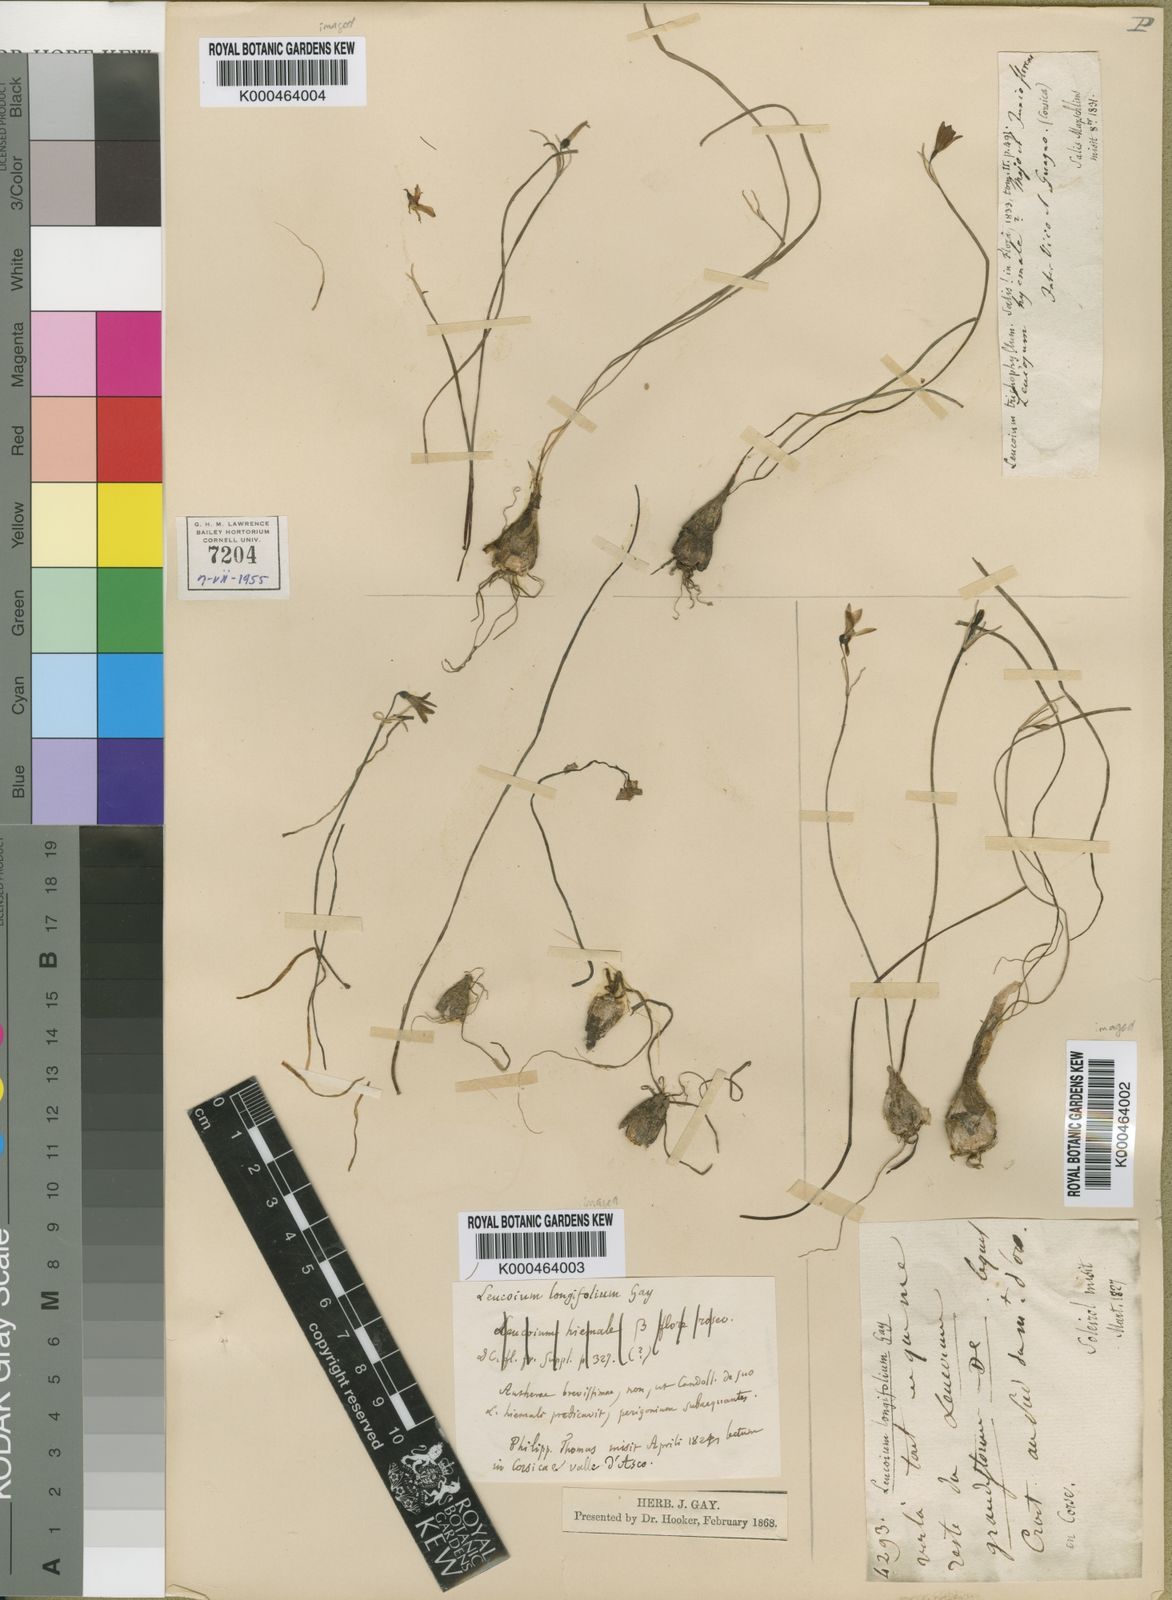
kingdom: Plantae
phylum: Tracheophyta
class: Liliopsida
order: Asparagales
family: Amaryllidaceae
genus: Acis
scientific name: Acis longifolia
